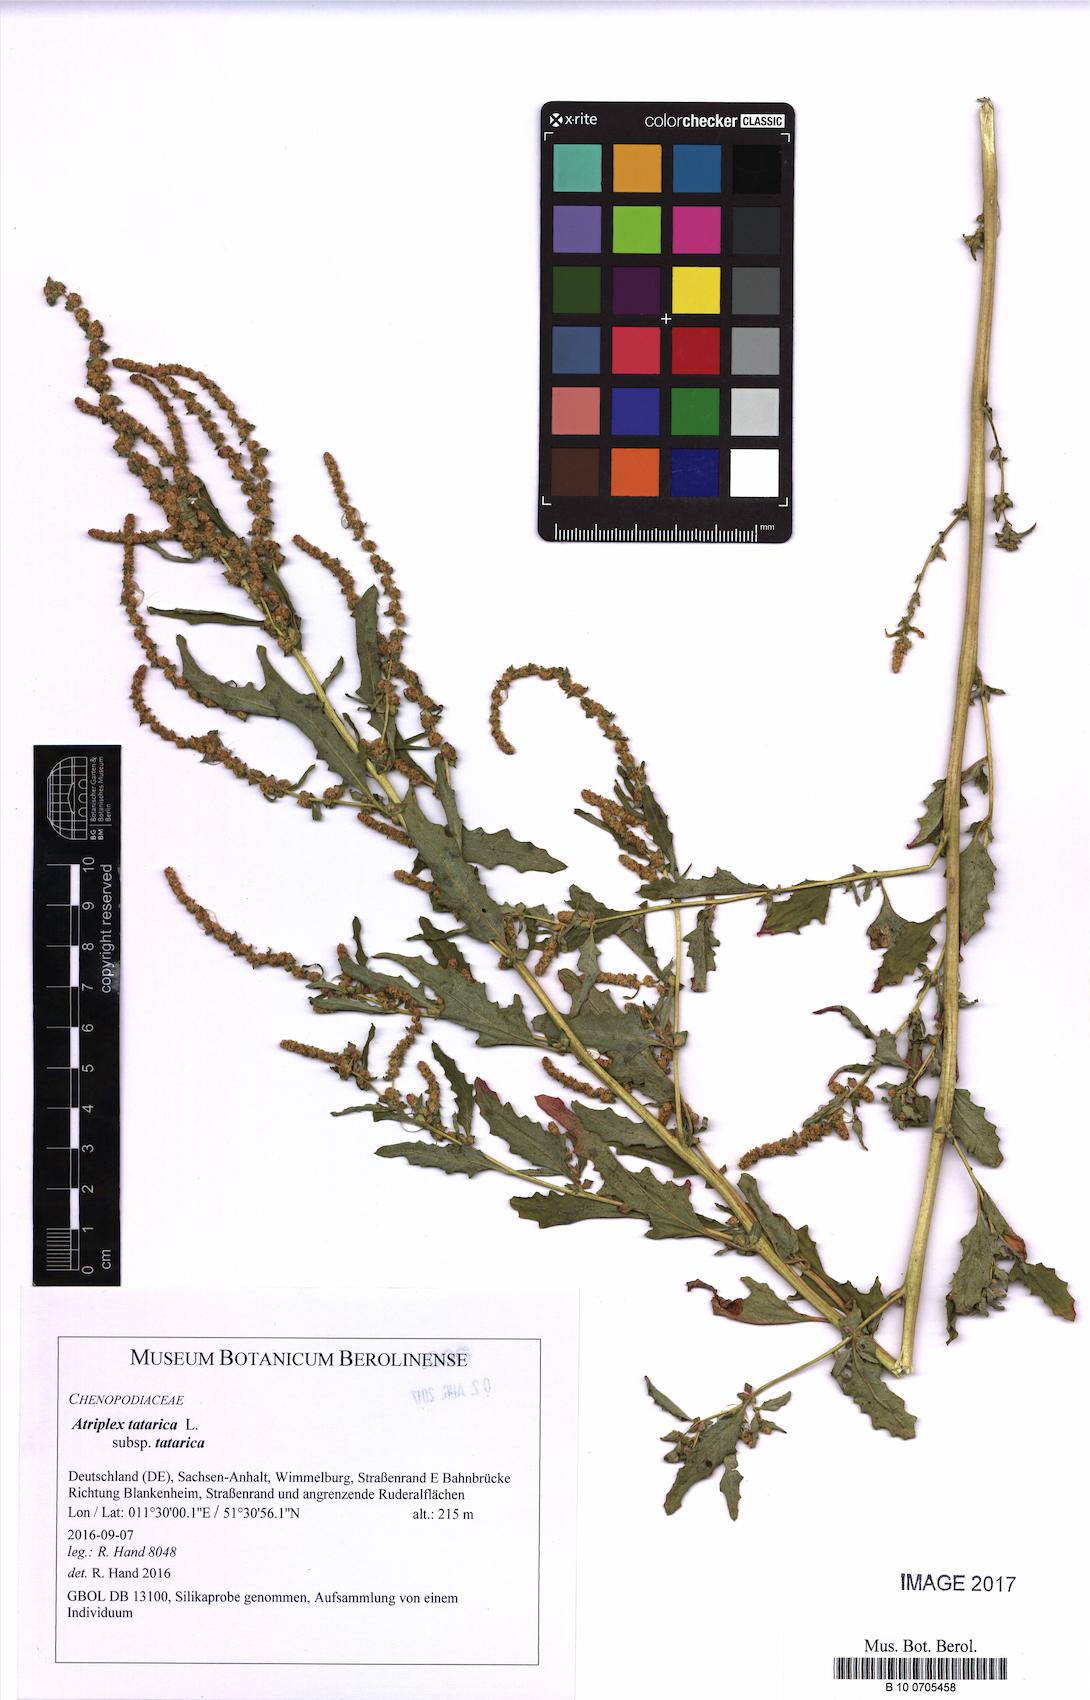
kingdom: Plantae
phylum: Tracheophyta
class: Magnoliopsida
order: Caryophyllales
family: Amaranthaceae
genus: Atriplex
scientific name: Atriplex tatarica
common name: Tatarian orache
